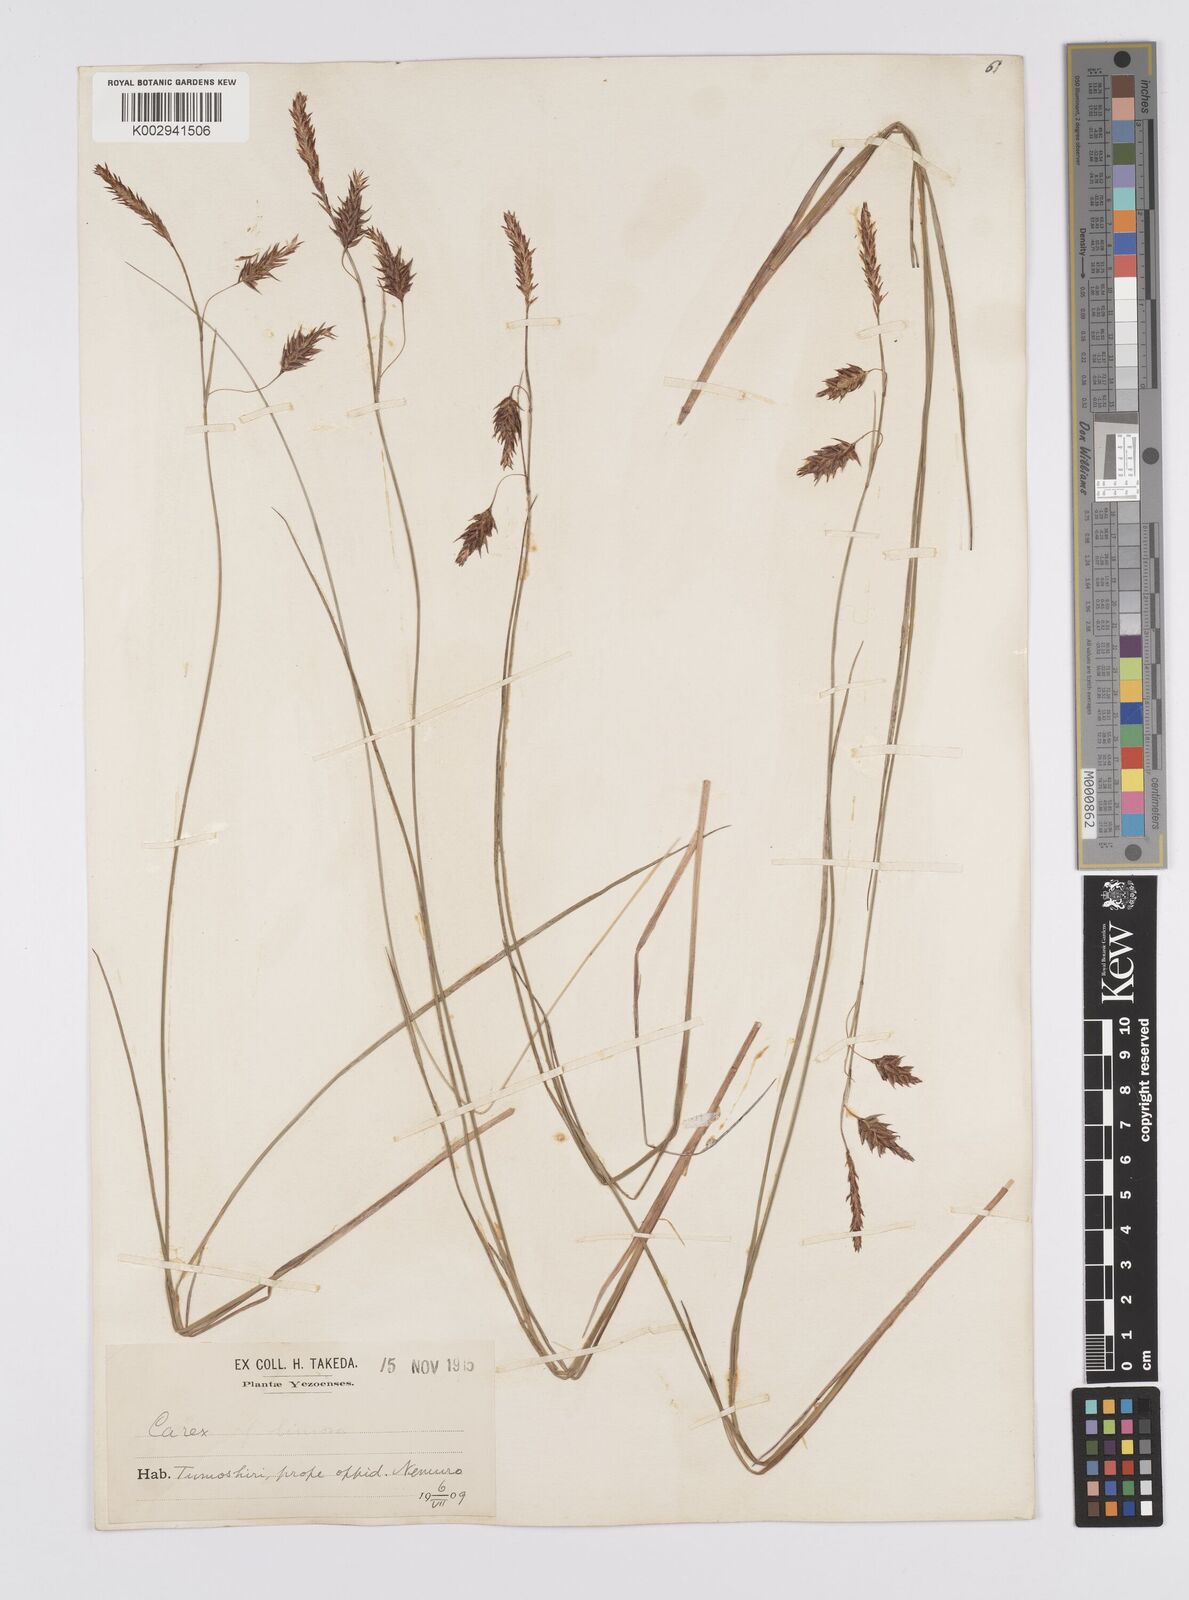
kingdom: Plantae
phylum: Tracheophyta
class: Liliopsida
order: Poales
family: Cyperaceae
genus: Carex
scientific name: Carex limosa
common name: Bog sedge
